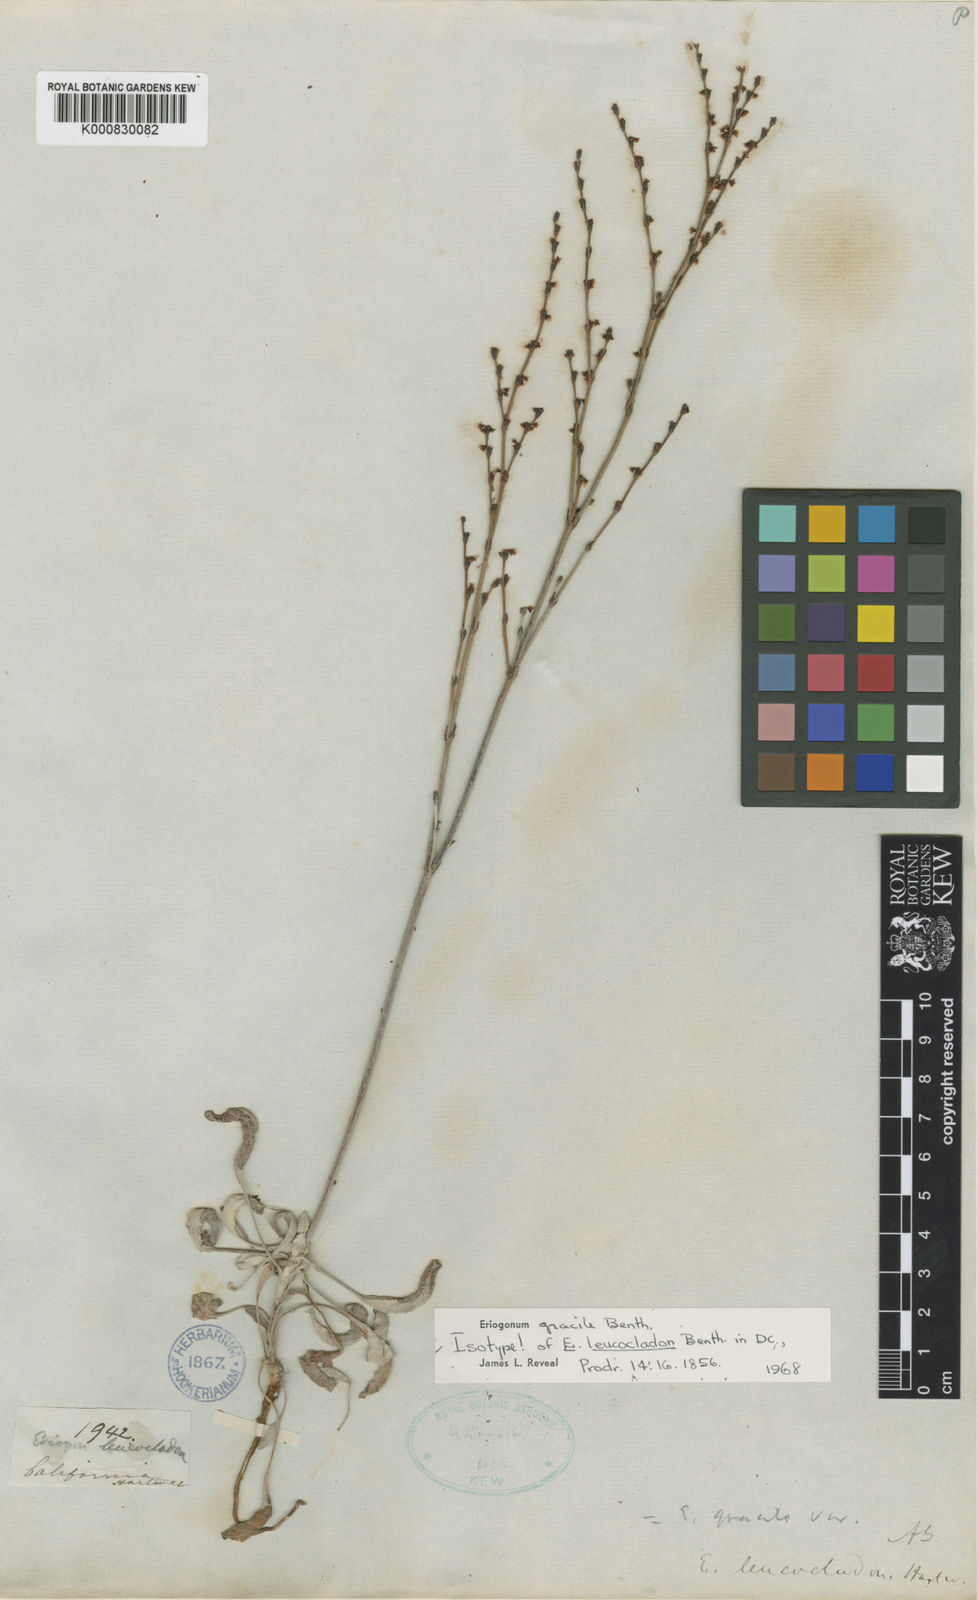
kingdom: Plantae
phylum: Tracheophyta
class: Magnoliopsida
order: Caryophyllales
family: Polygonaceae
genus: Eriogonum
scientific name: Eriogonum gracile
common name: Slender woolly buckwheat
